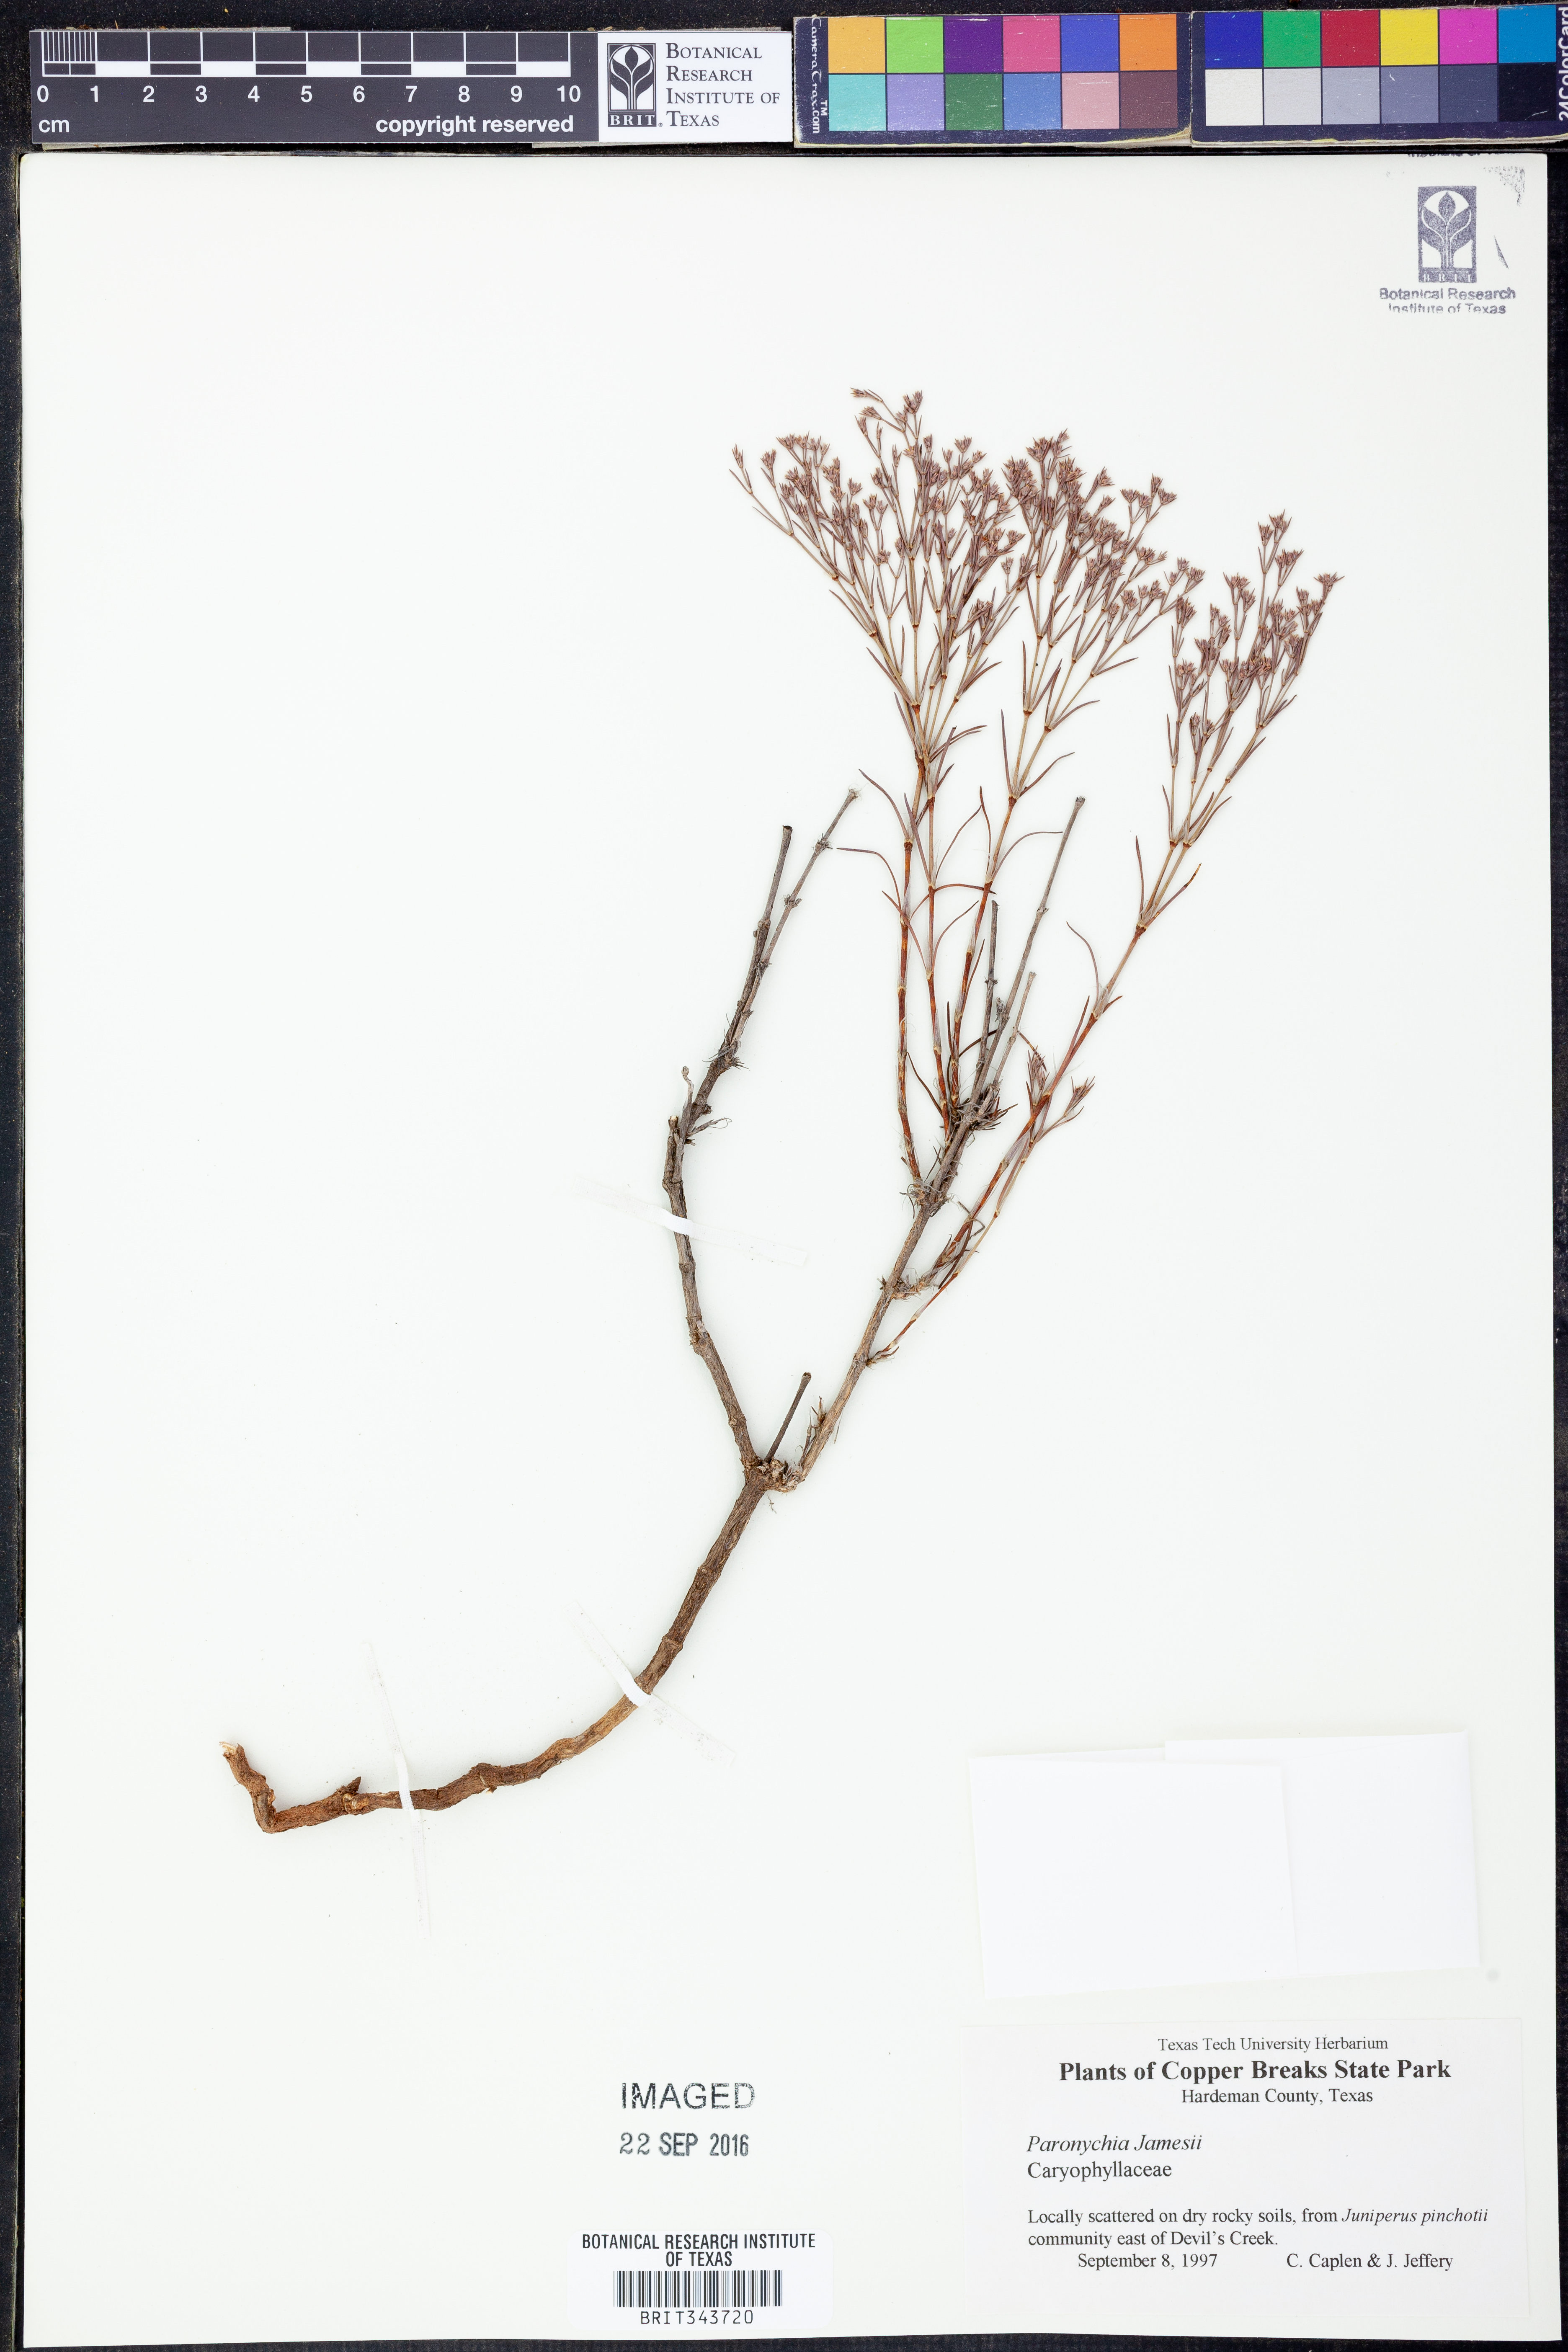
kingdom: Plantae
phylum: Tracheophyta
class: Magnoliopsida
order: Caryophyllales
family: Caryophyllaceae
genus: Paronychia
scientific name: Paronychia jamesii
